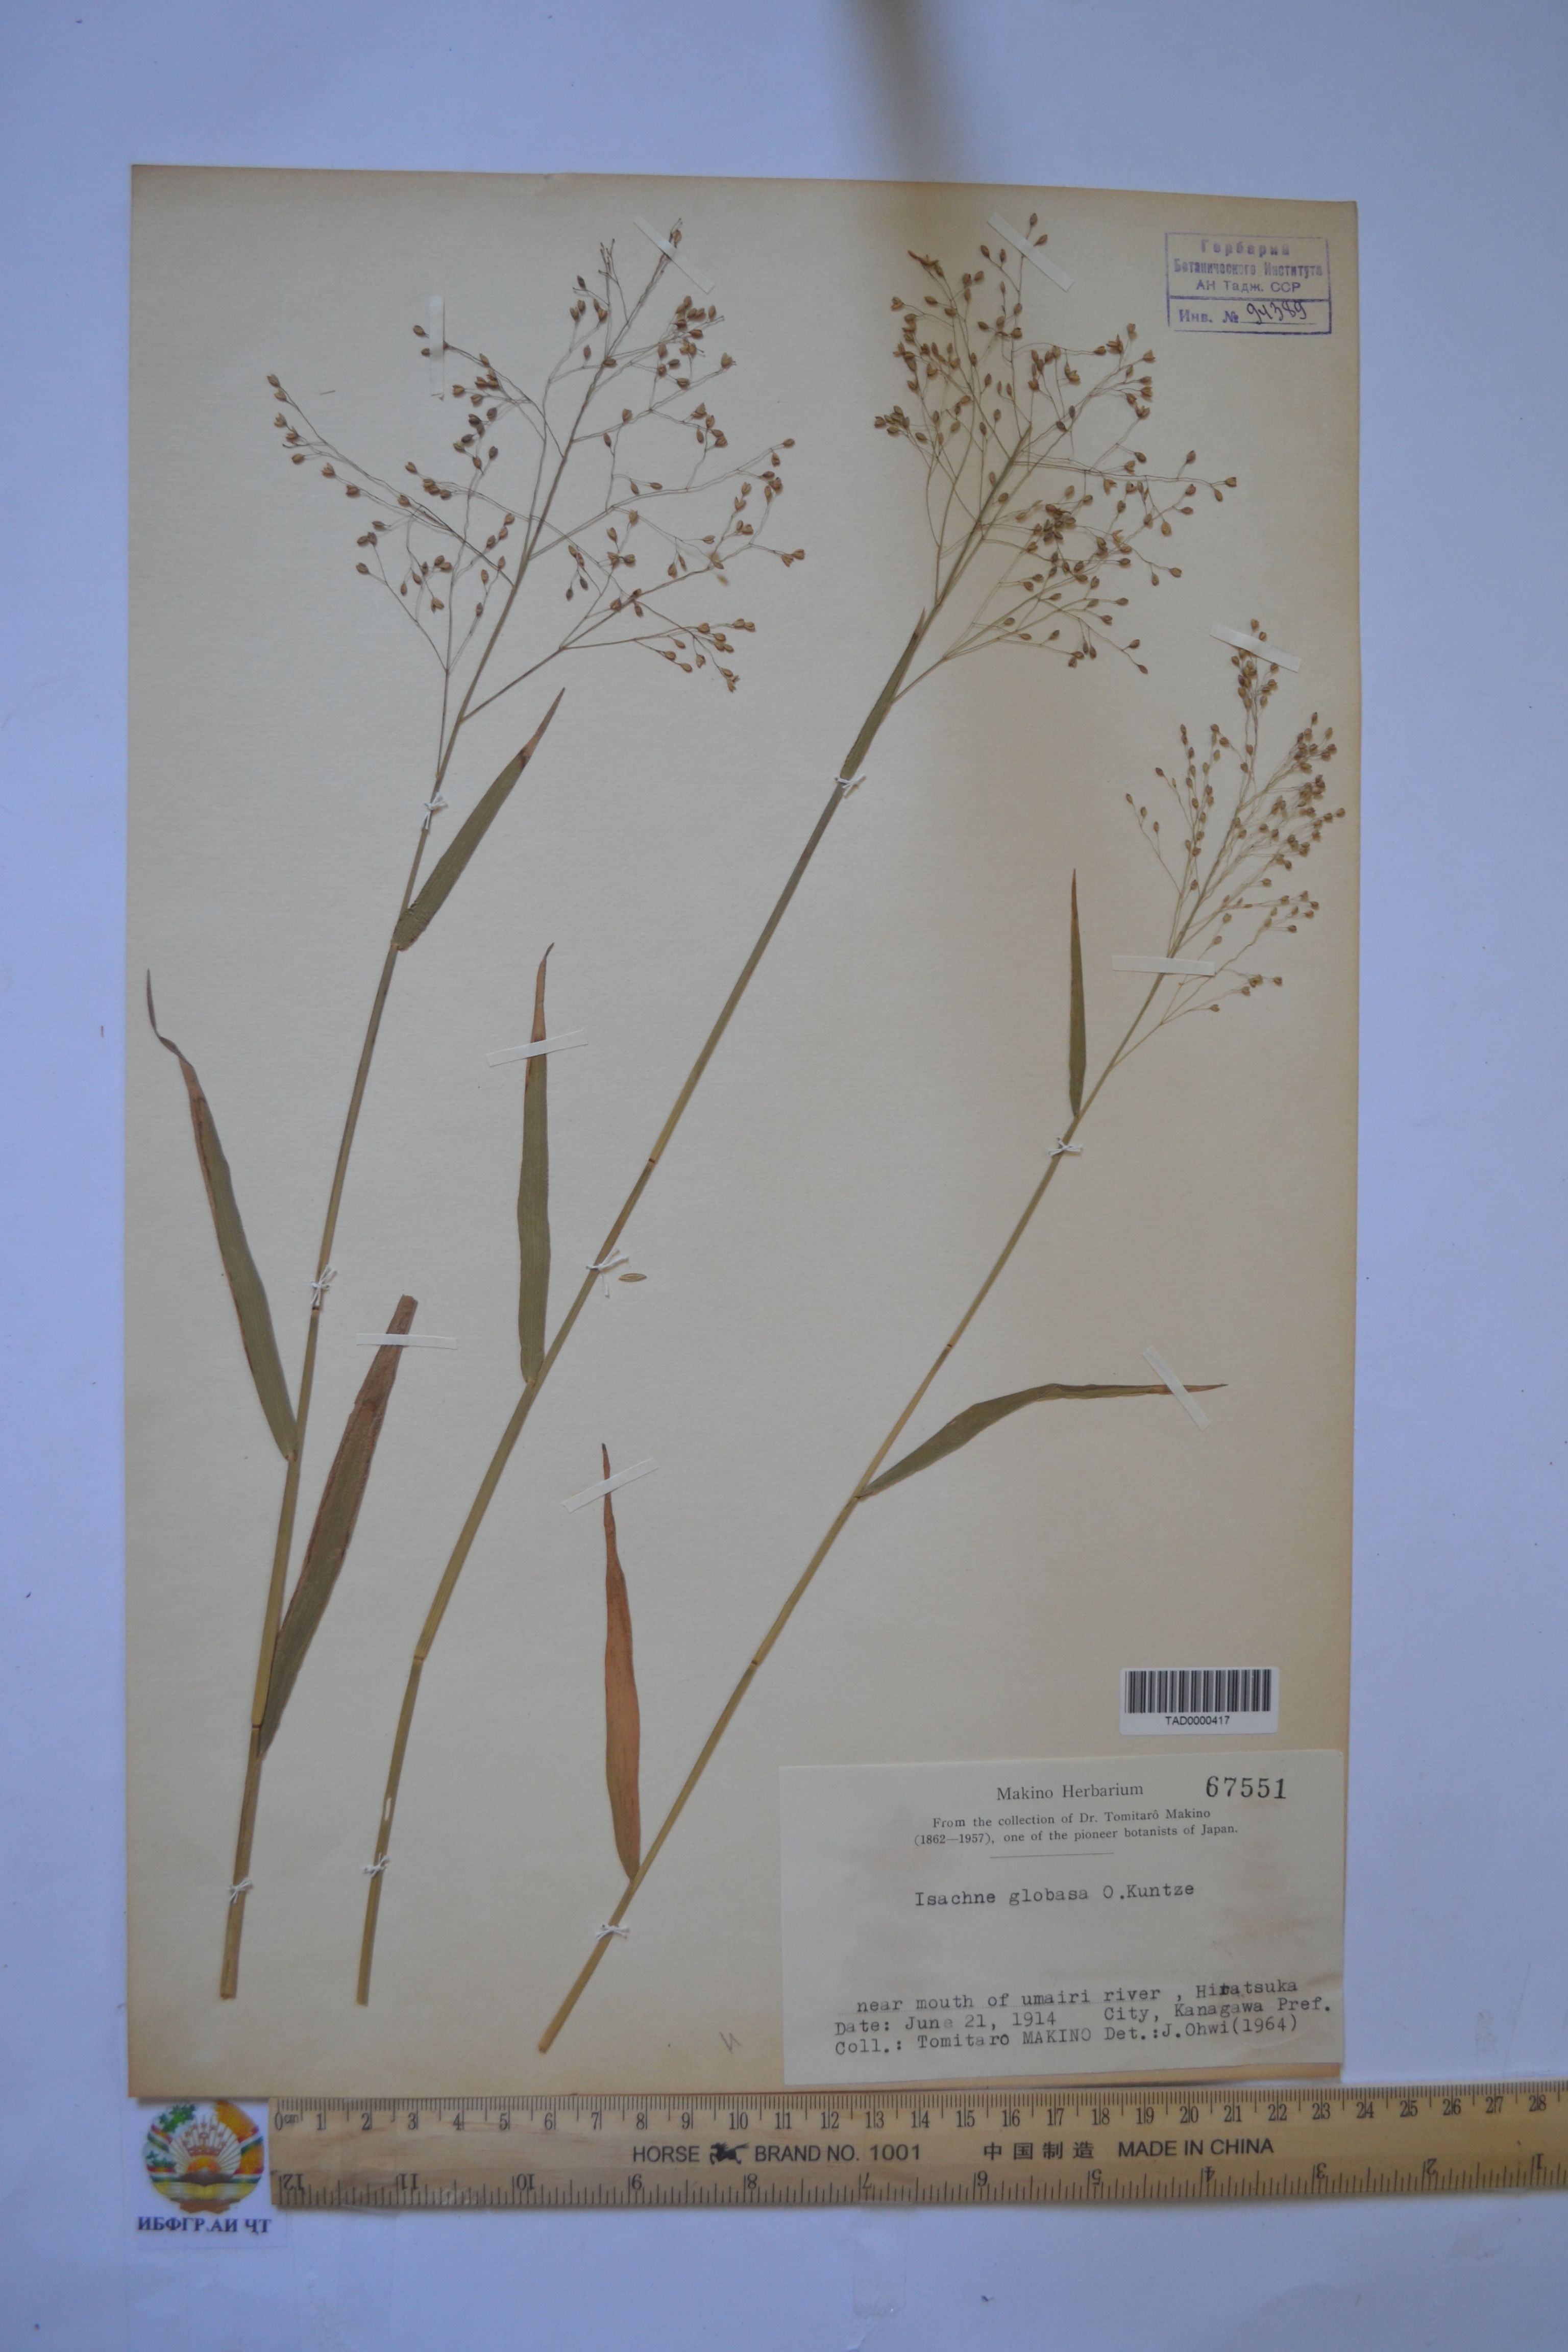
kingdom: Plantae
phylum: Tracheophyta
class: Liliopsida
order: Poales
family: Poaceae
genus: Isachne
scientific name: Isachne globosa
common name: Swamp millet
